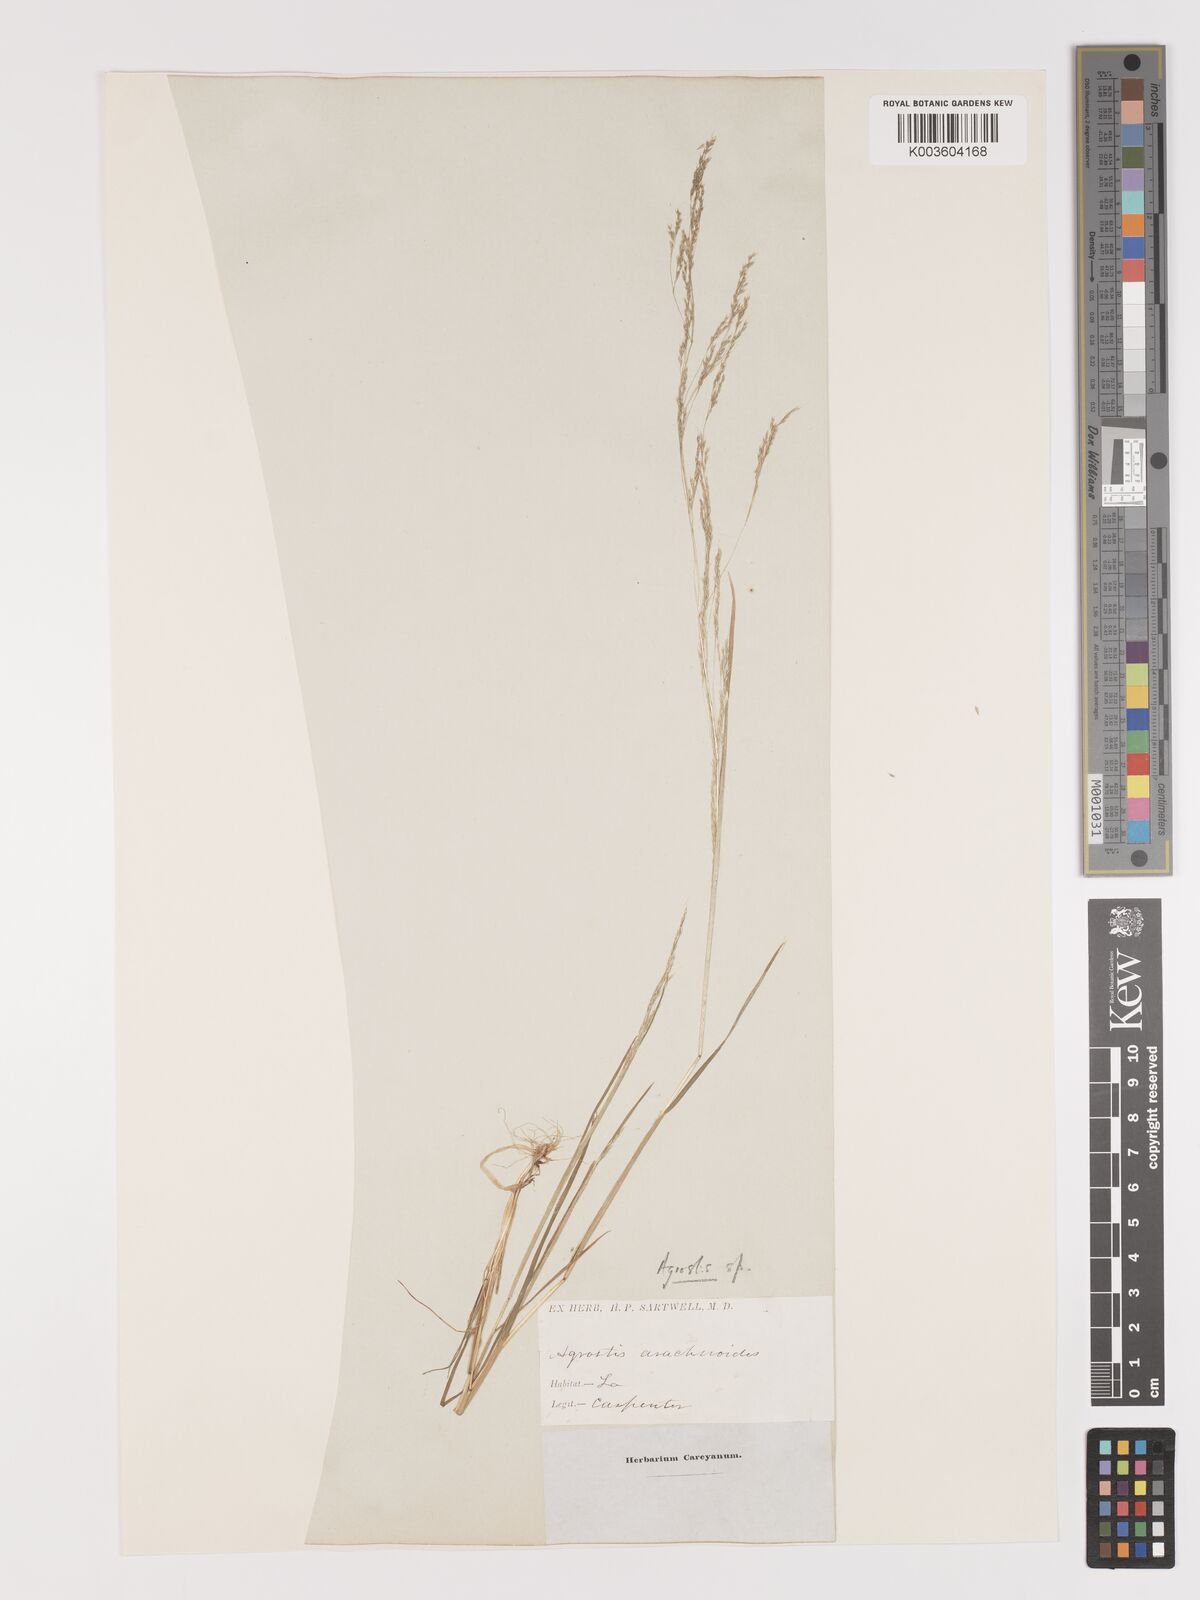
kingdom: Plantae
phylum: Tracheophyta
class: Liliopsida
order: Poales
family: Poaceae
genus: Agrostis
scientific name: Agrostis elliottiana
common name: Elliott's bent
